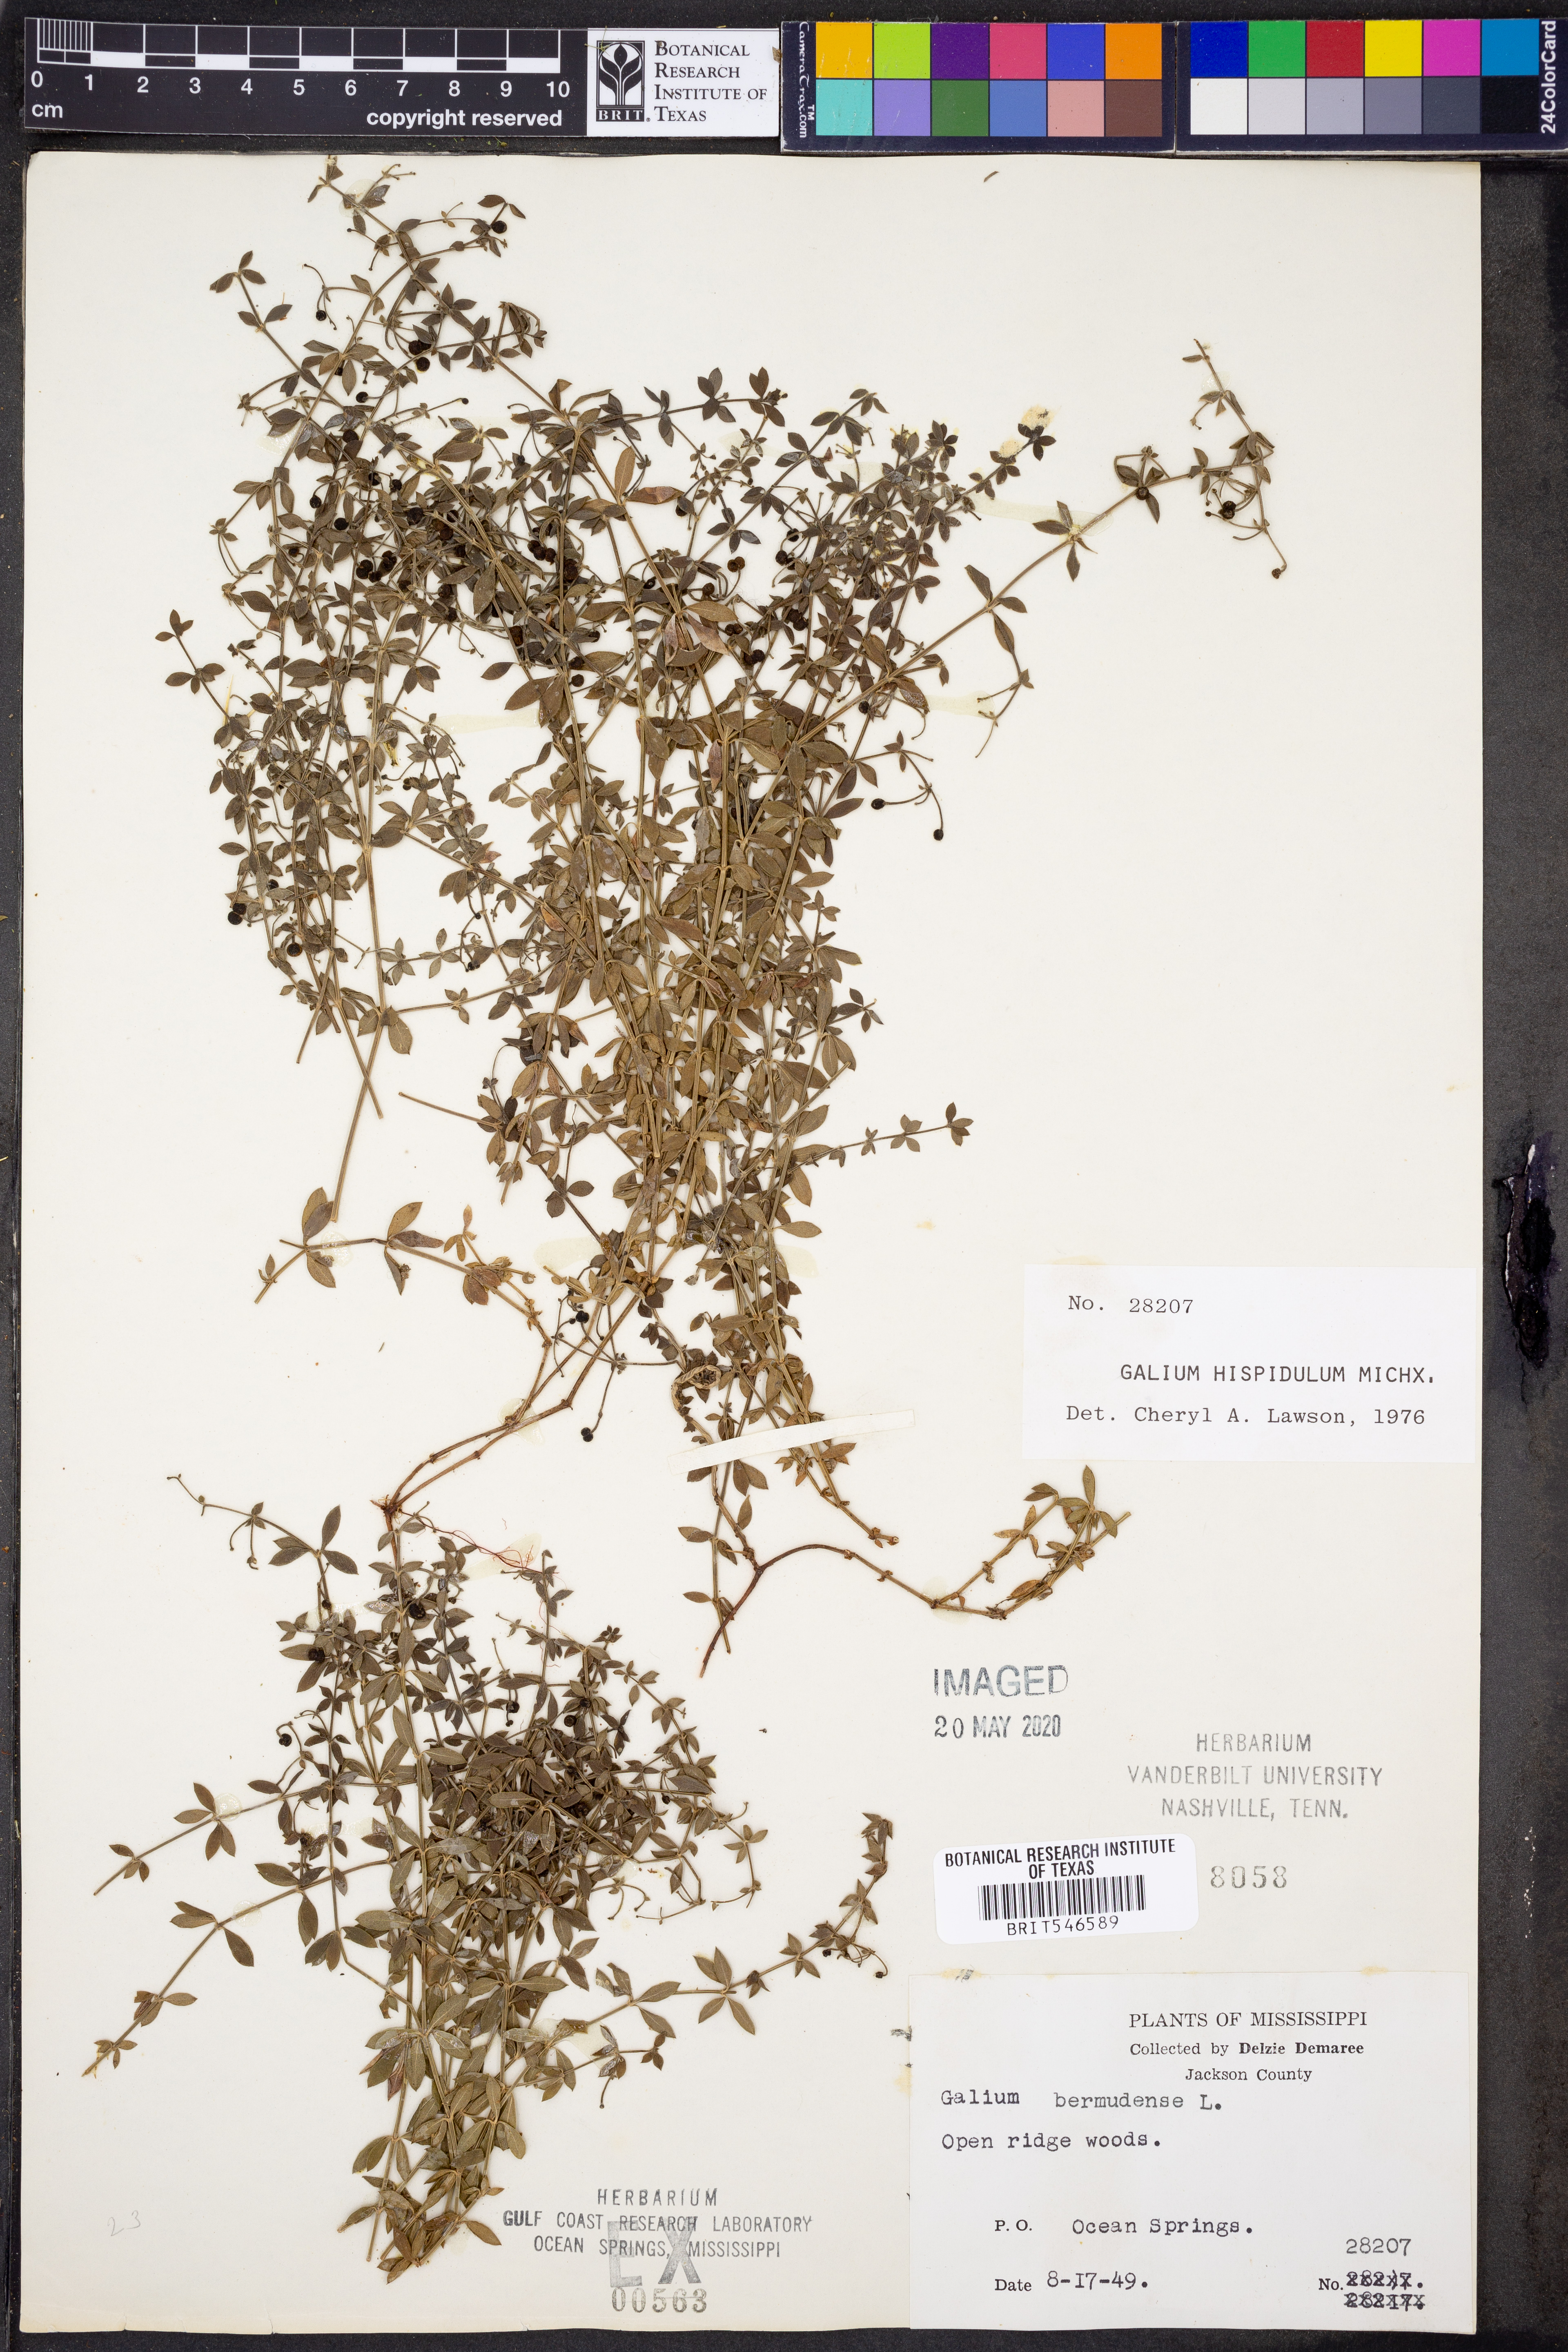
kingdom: Plantae
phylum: Tracheophyta
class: Magnoliopsida
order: Gentianales
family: Rubiaceae
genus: Galium
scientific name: Galium bermudense
